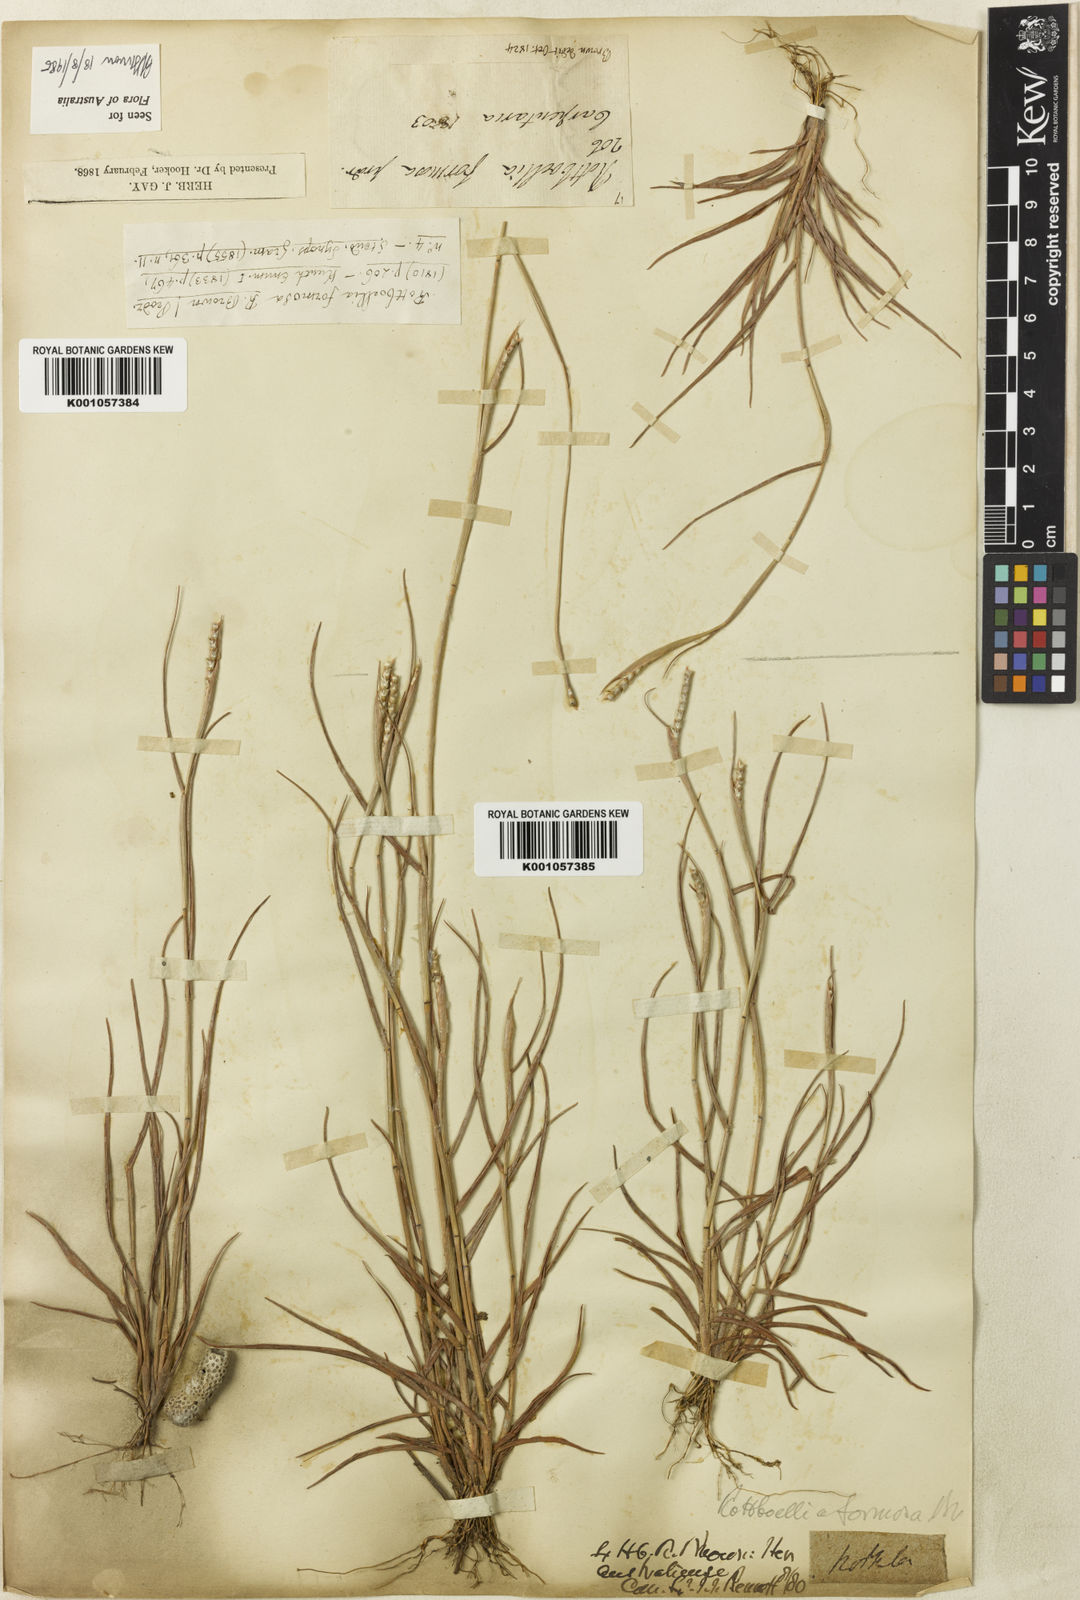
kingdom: Plantae
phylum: Tracheophyta
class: Liliopsida
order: Poales
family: Poaceae
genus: Heteropholis
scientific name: Heteropholis
